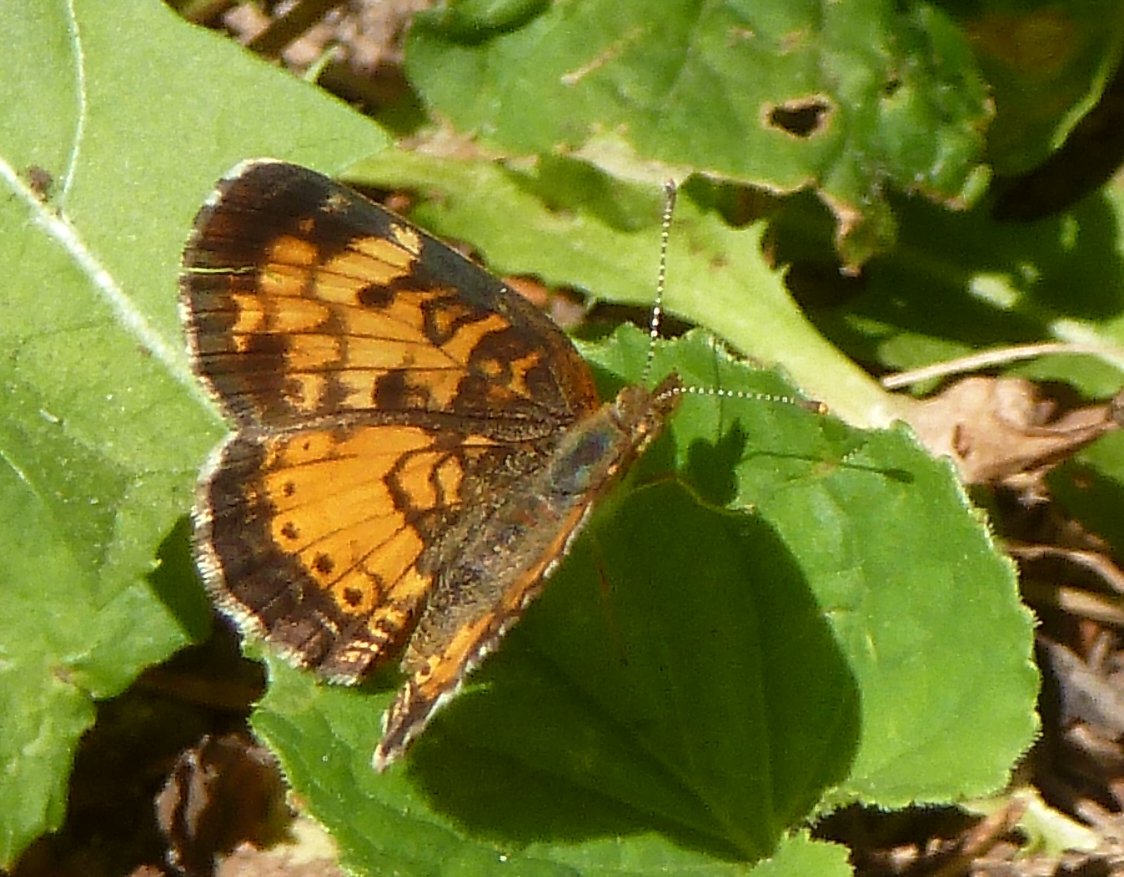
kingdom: Animalia
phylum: Arthropoda
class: Insecta
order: Lepidoptera
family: Nymphalidae
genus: Phyciodes
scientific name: Phyciodes tharos
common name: Northern Crescent
